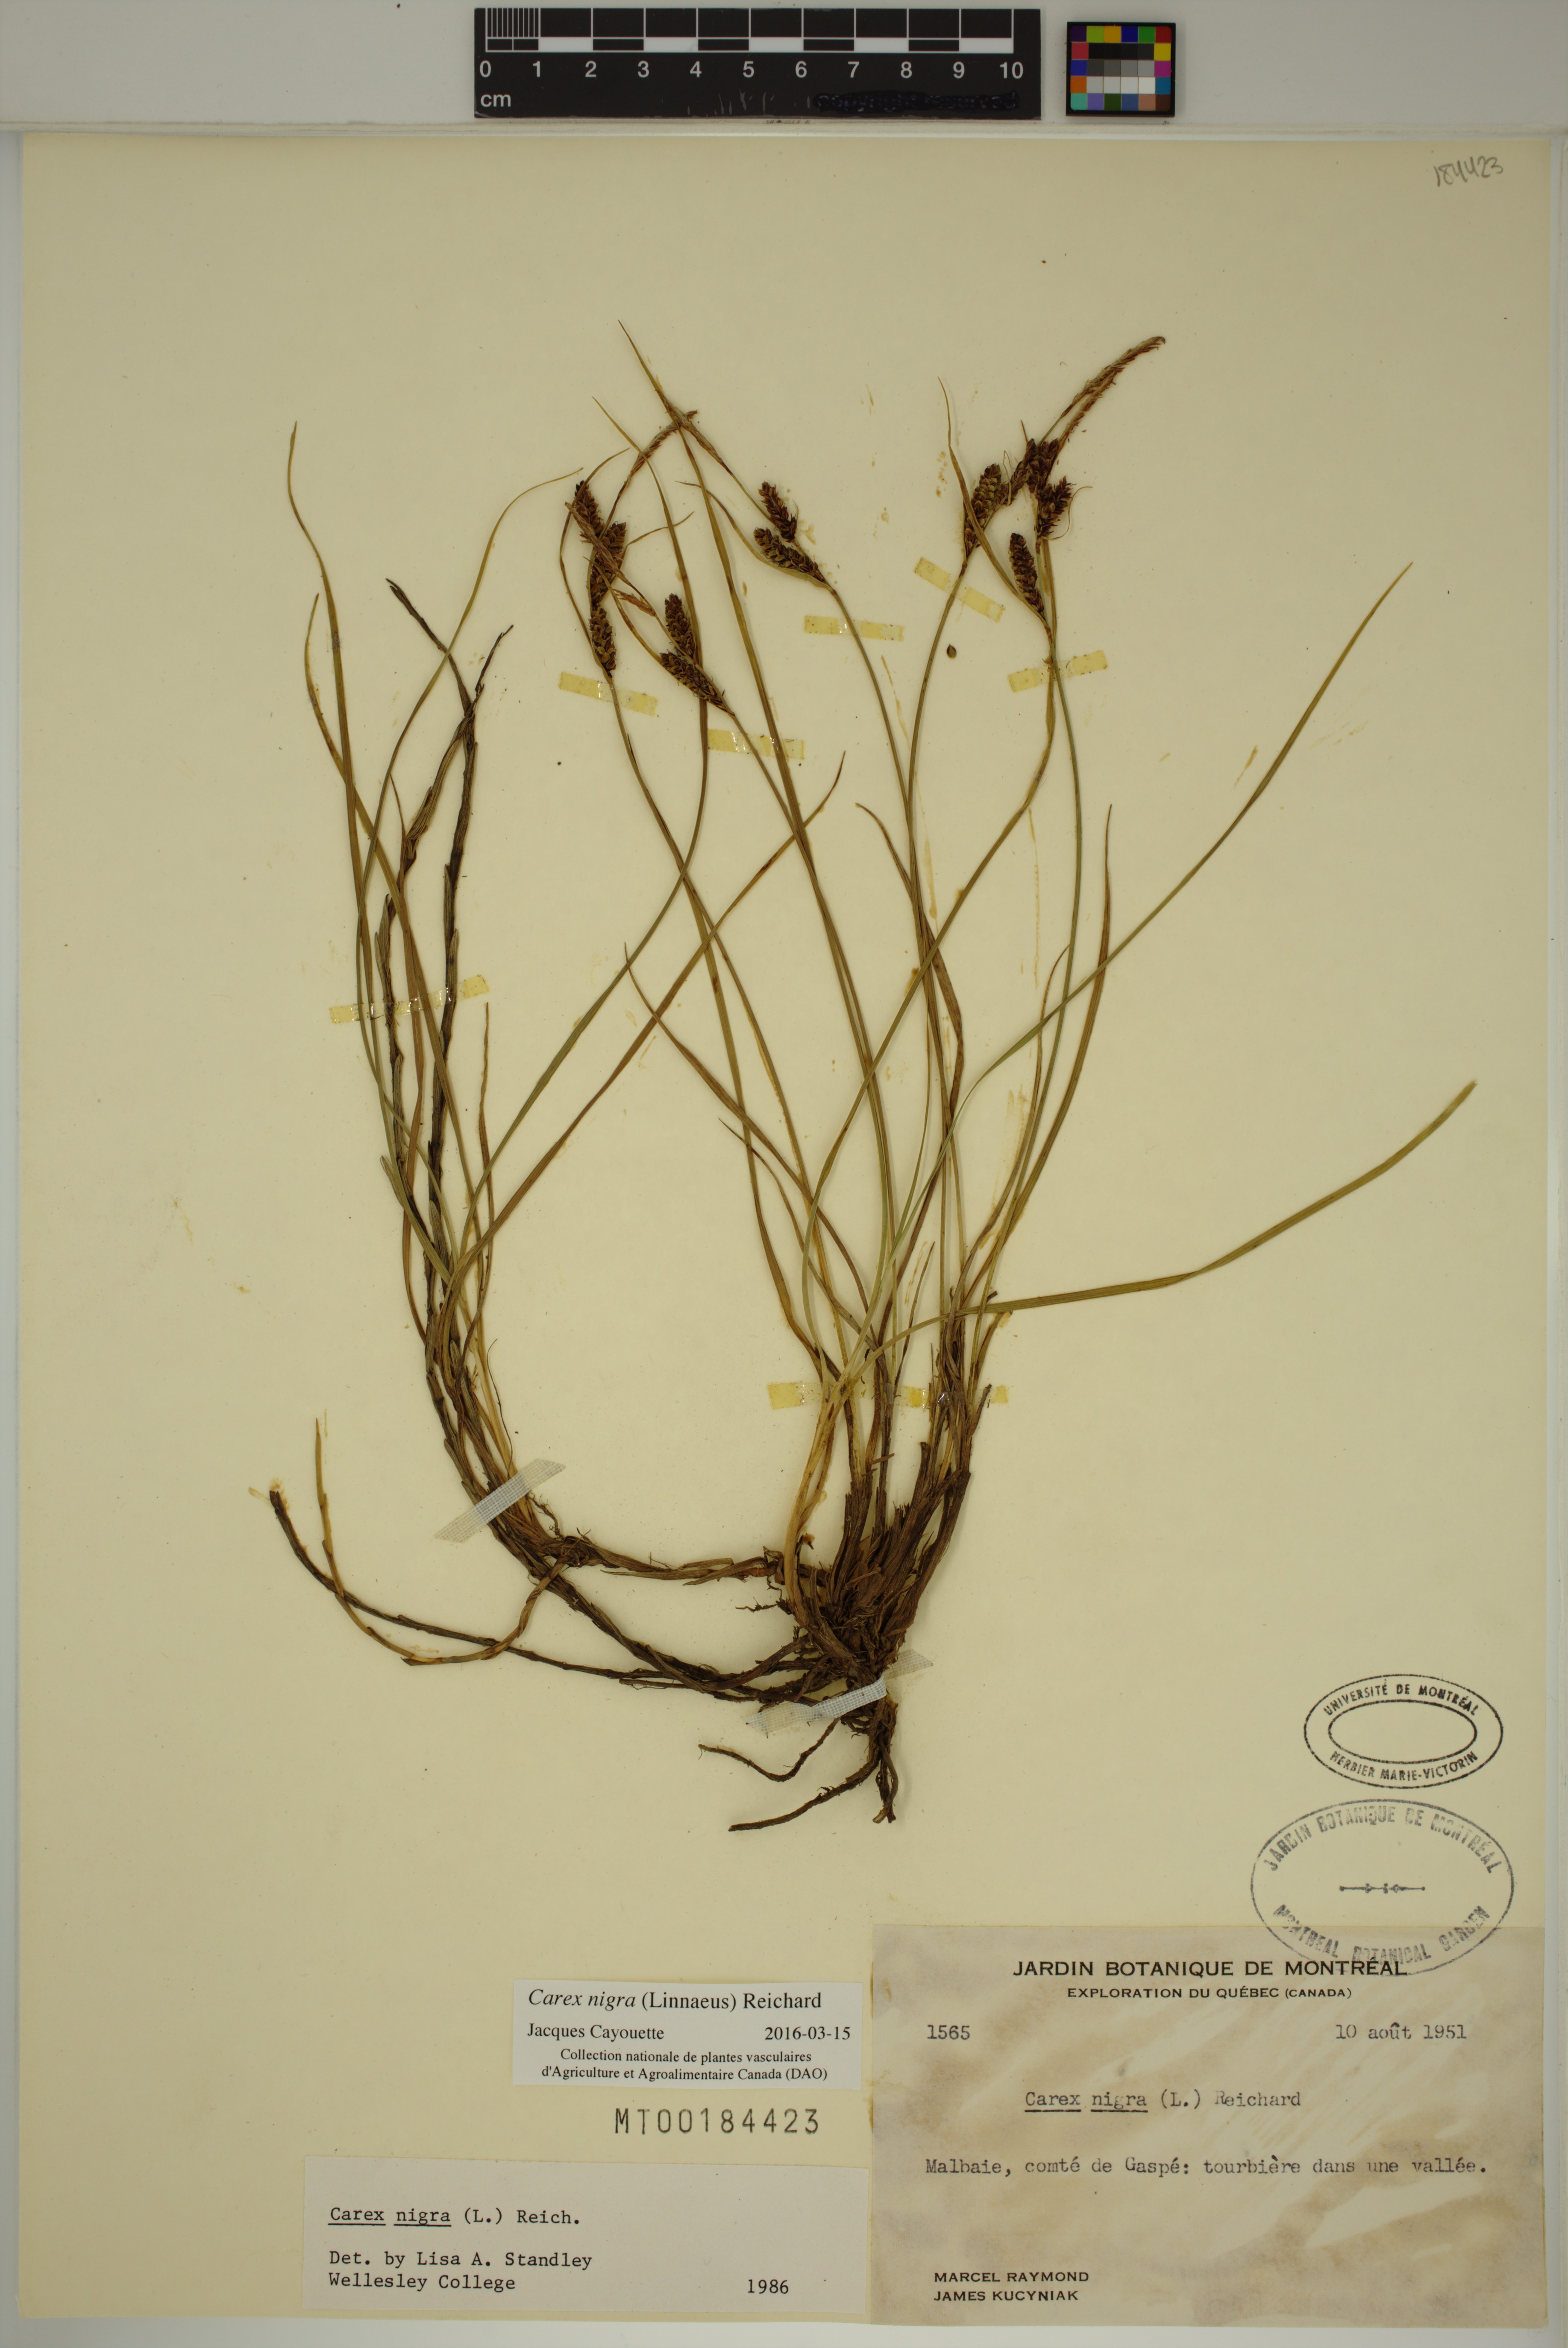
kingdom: Plantae
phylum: Tracheophyta
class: Liliopsida
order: Poales
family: Cyperaceae
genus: Carex
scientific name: Carex nigra
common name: Common sedge
